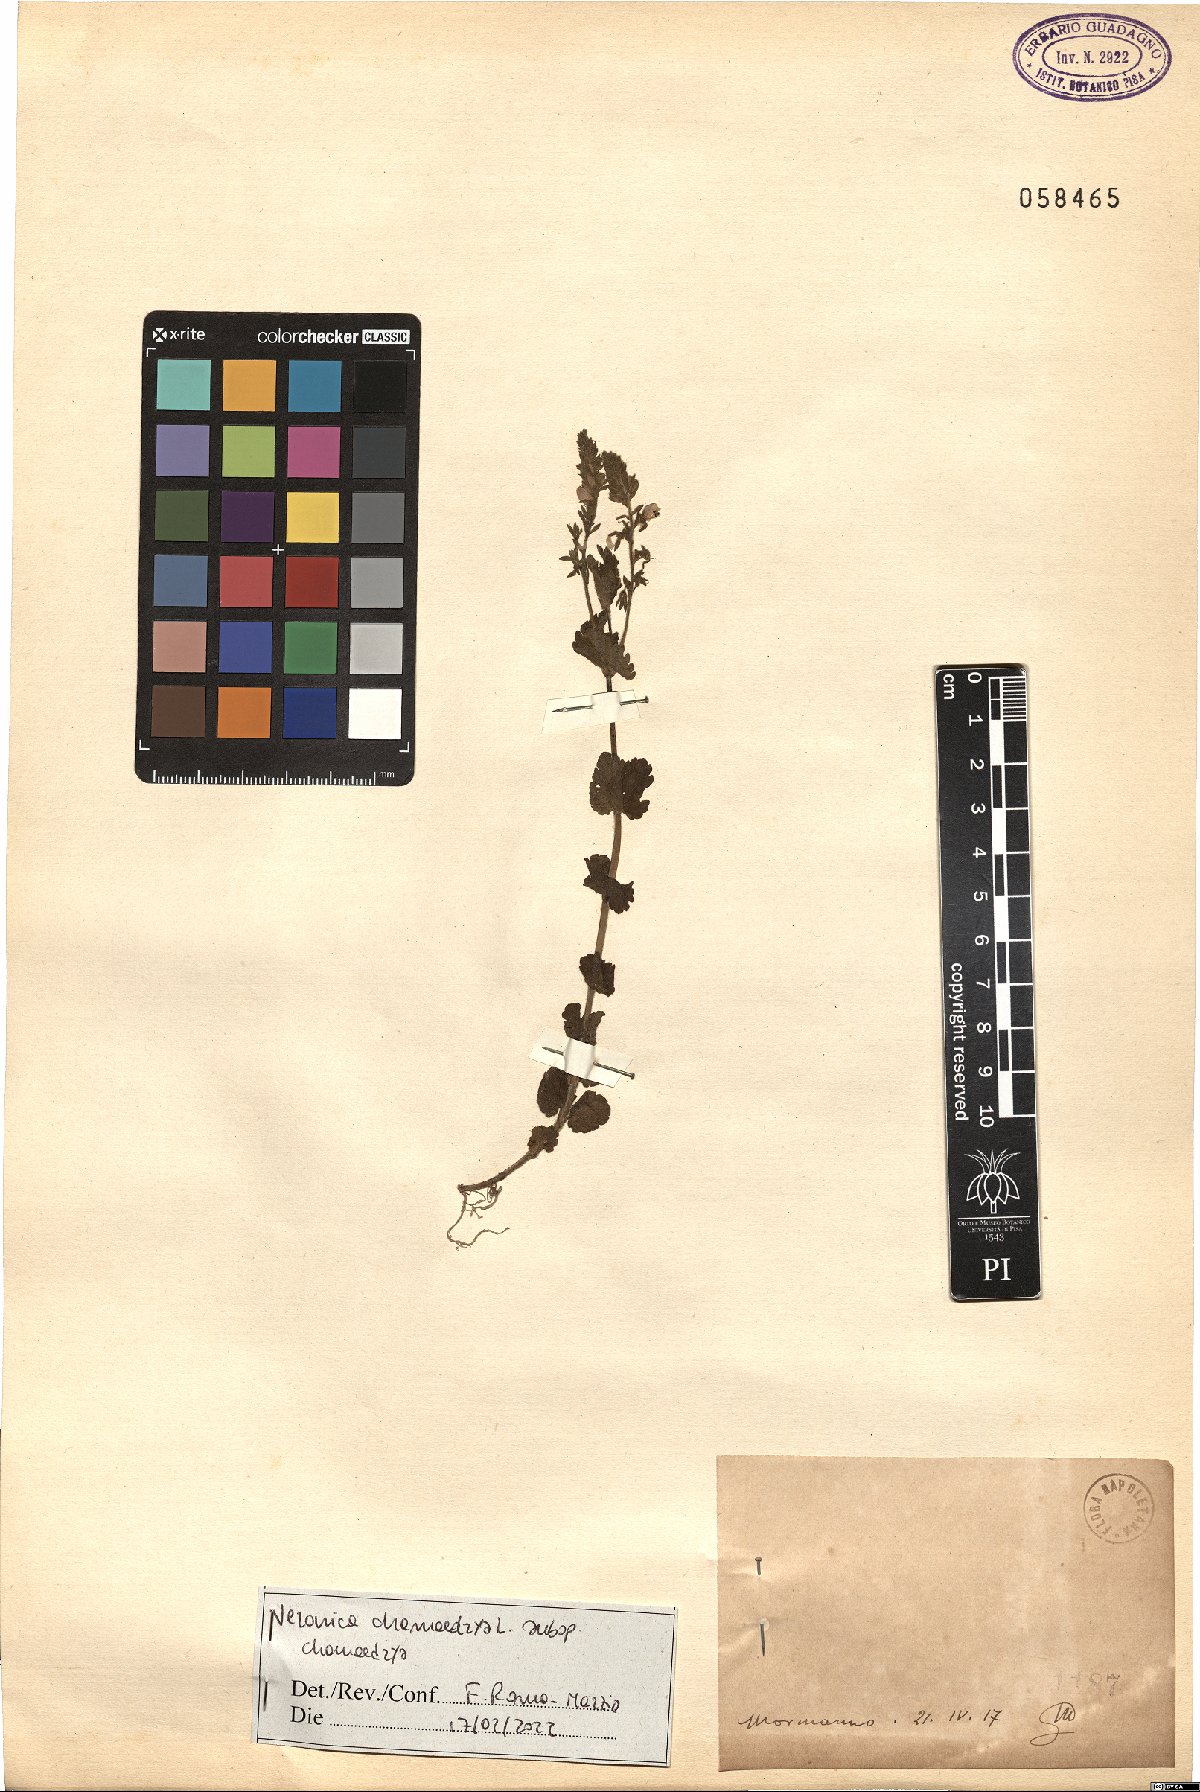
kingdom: Plantae
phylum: Tracheophyta
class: Magnoliopsida
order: Lamiales
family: Plantaginaceae
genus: Veronica
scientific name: Veronica chamaedrys
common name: Germander speedwell
